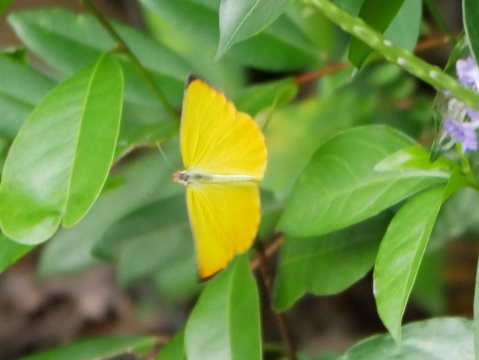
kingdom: Animalia
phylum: Arthropoda
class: Insecta
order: Lepidoptera
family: Pieridae
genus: Pyrisitia
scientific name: Pyrisitia dina
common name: Dina Yellow
